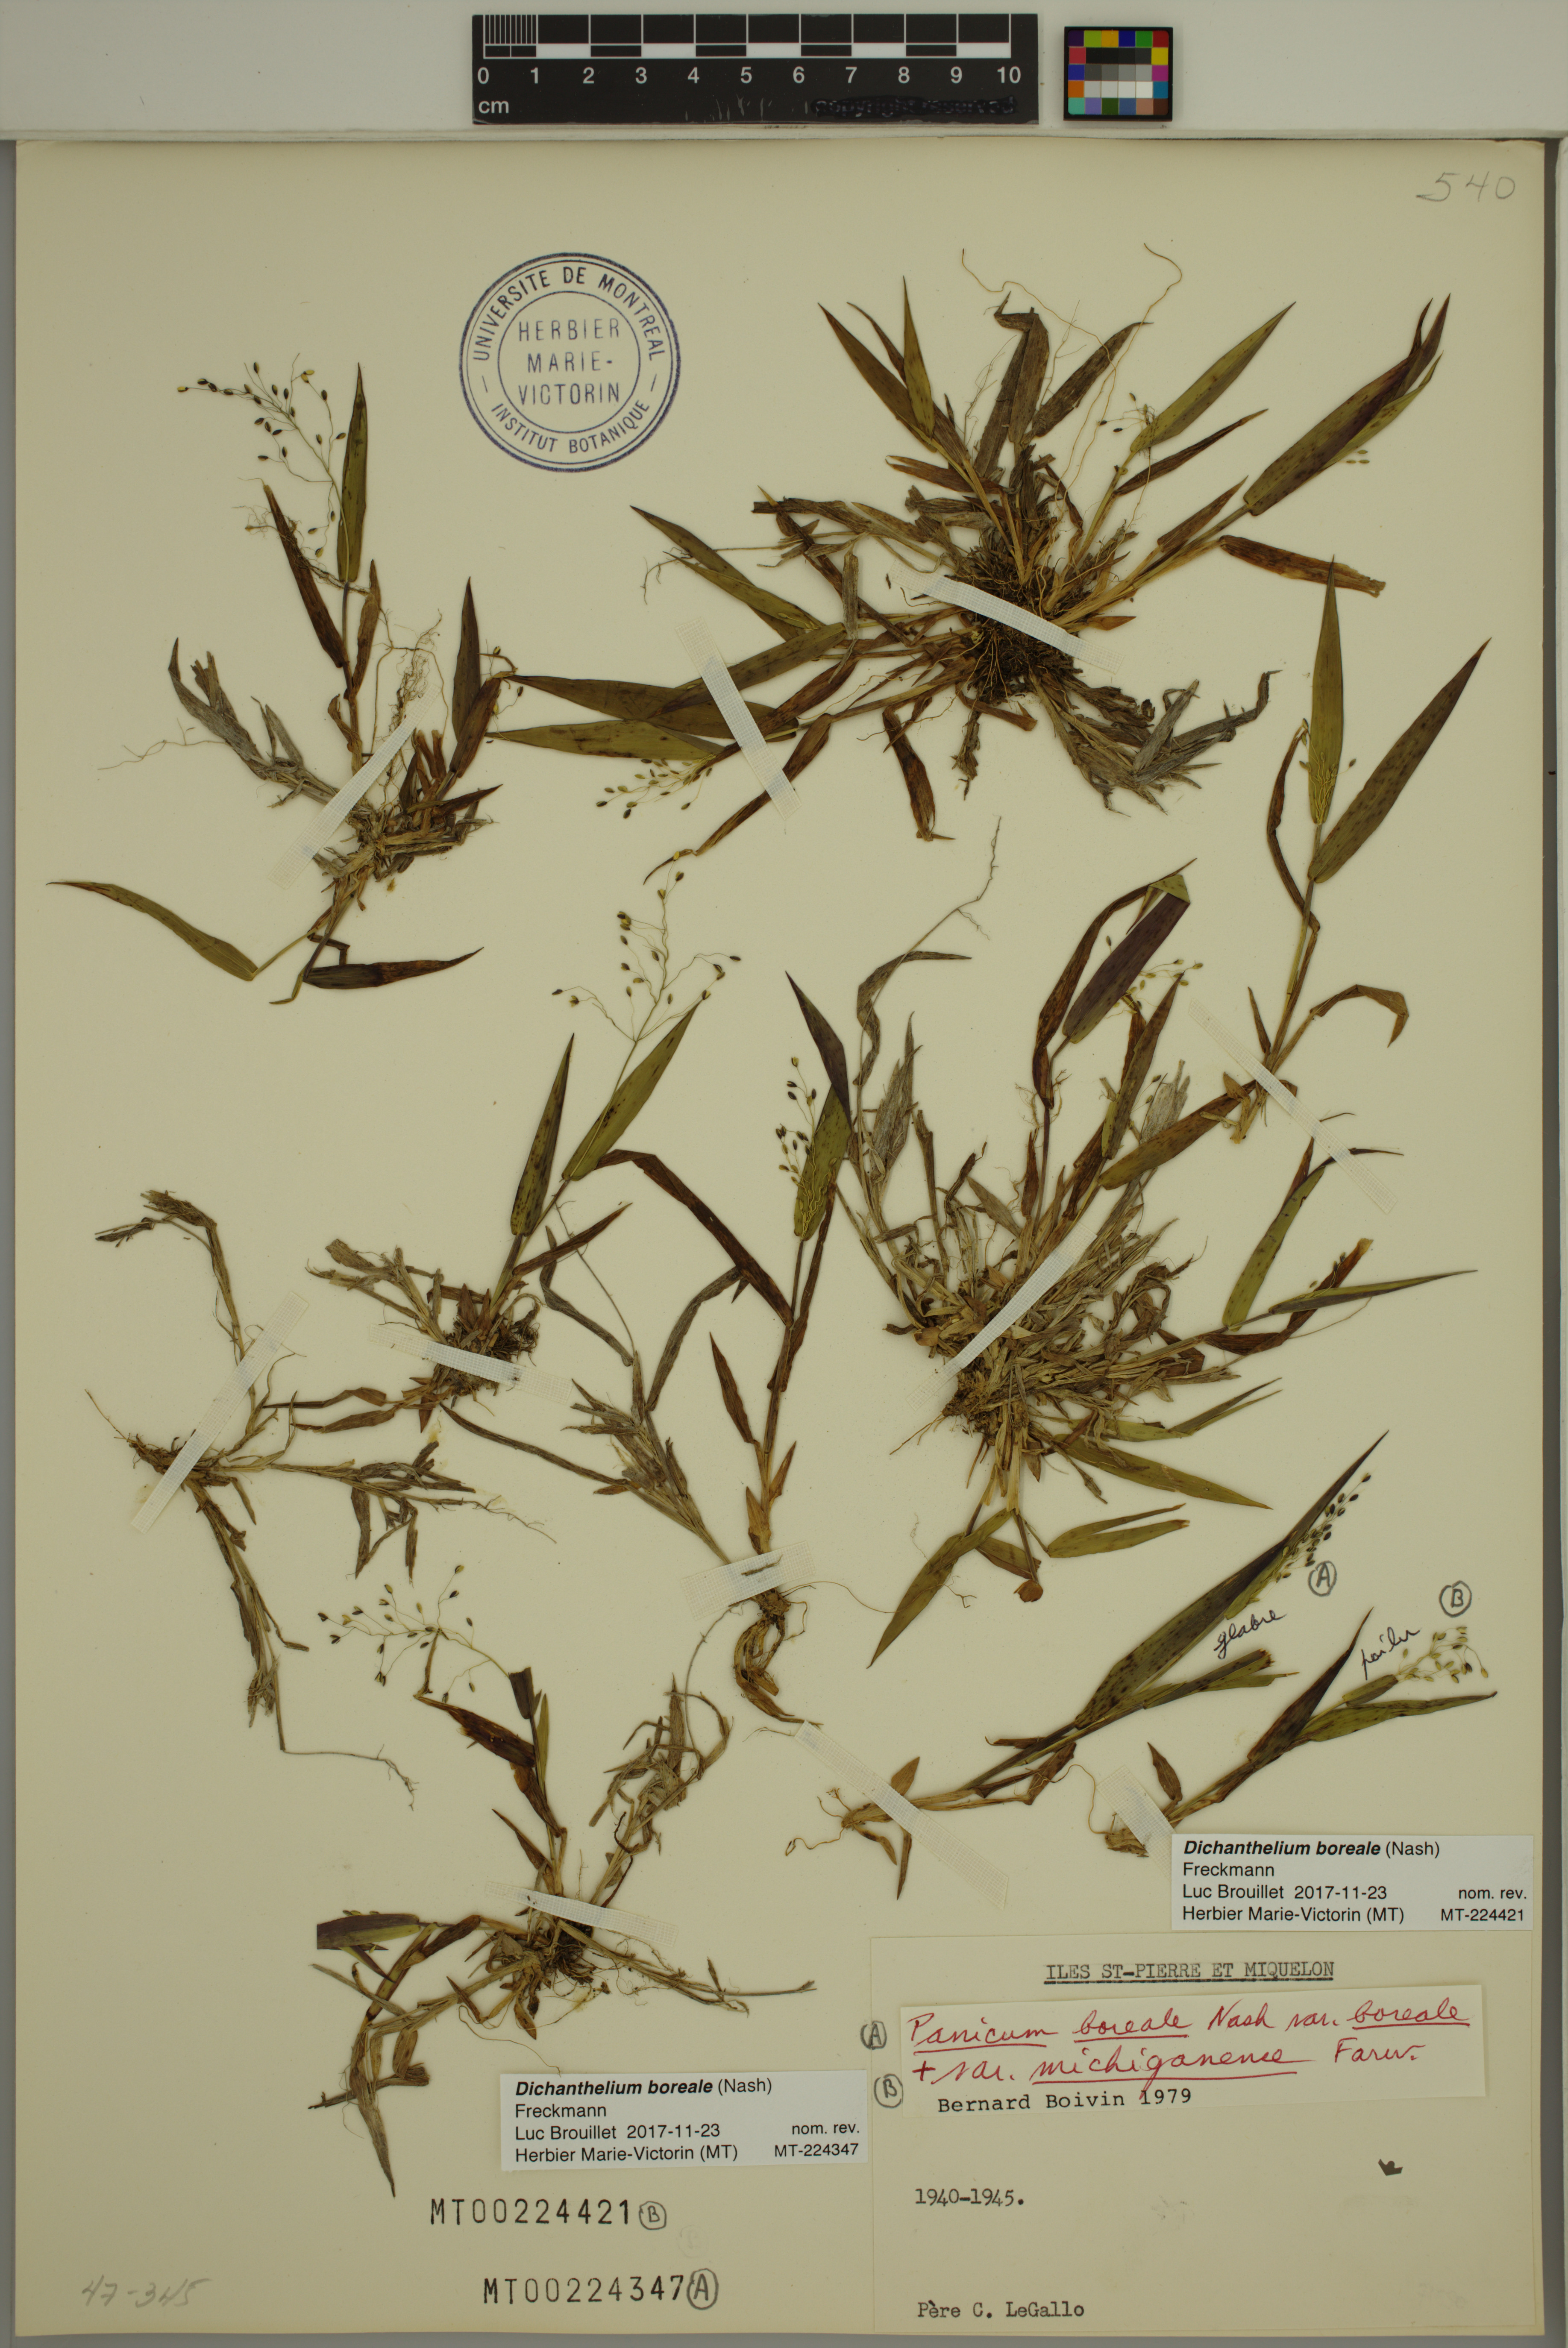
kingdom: Plantae
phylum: Tracheophyta
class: Liliopsida
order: Poales
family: Poaceae
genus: Dichanthelium
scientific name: Dichanthelium boreale
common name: Northern panicgrass
